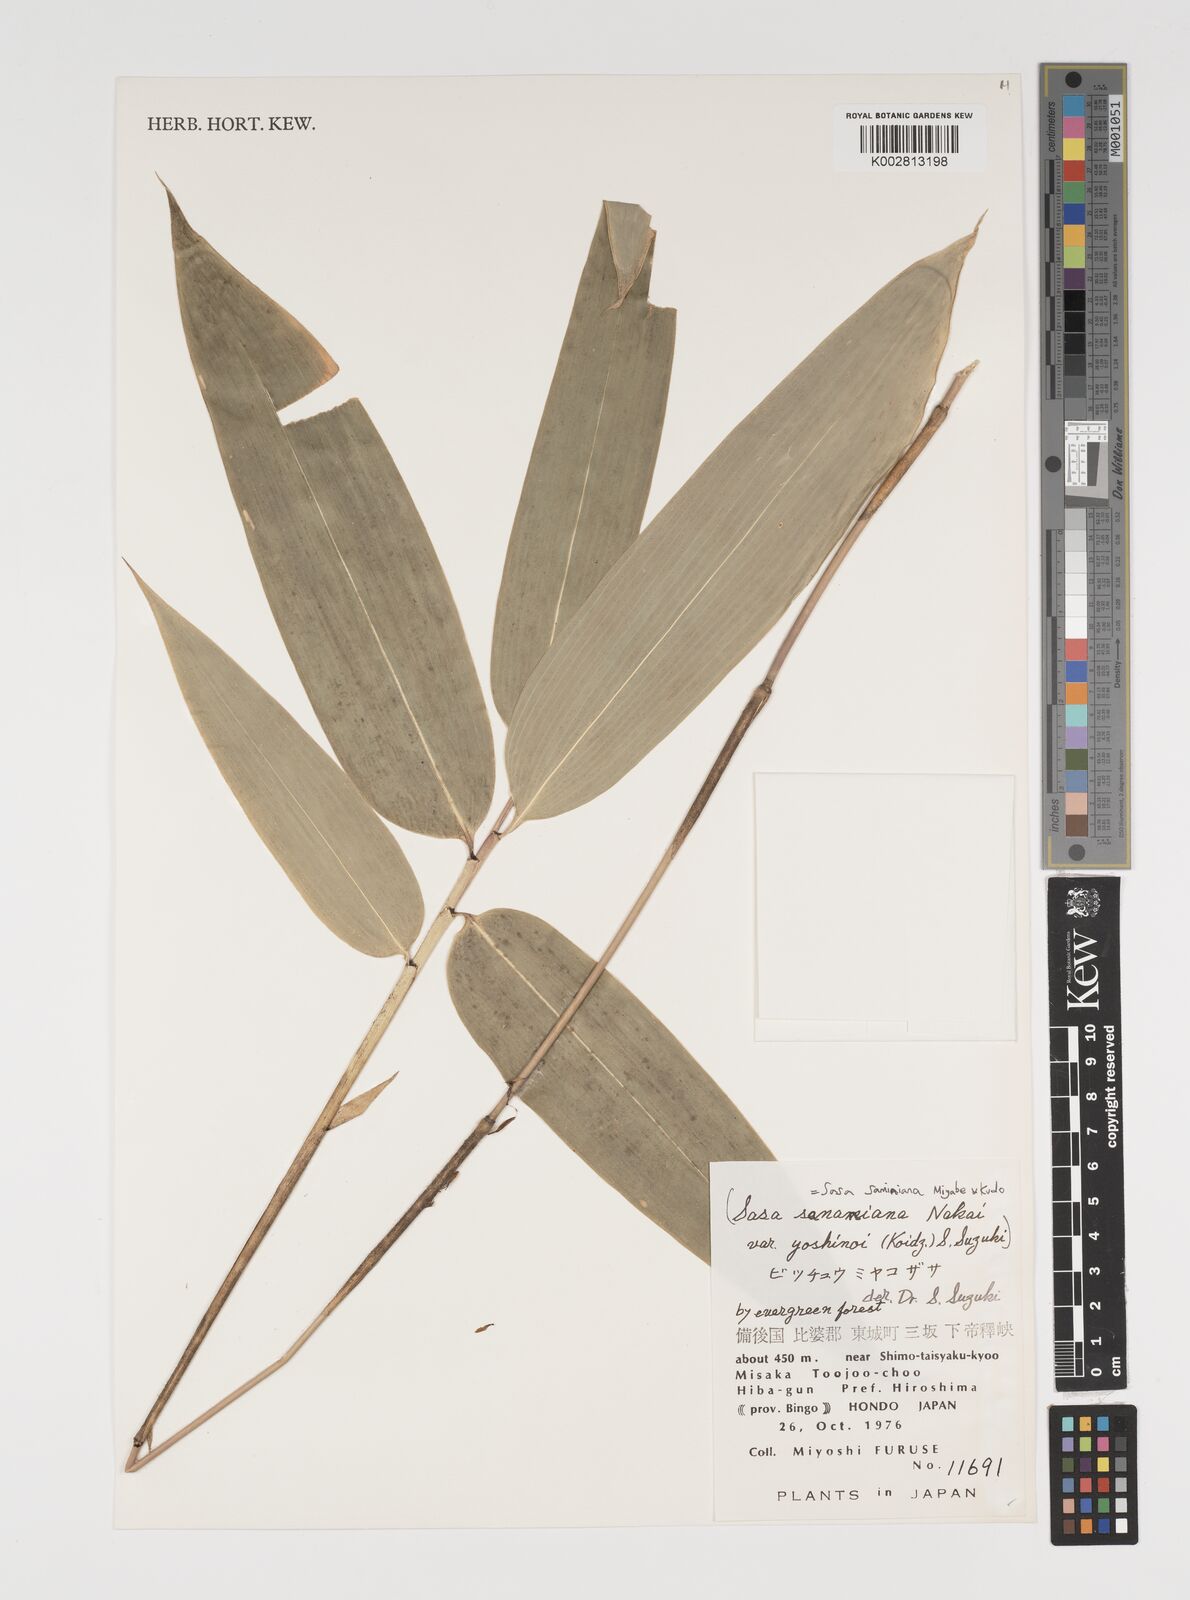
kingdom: Plantae
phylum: Tracheophyta
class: Liliopsida
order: Poales
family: Poaceae
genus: Sasa
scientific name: Sasa samaniana
